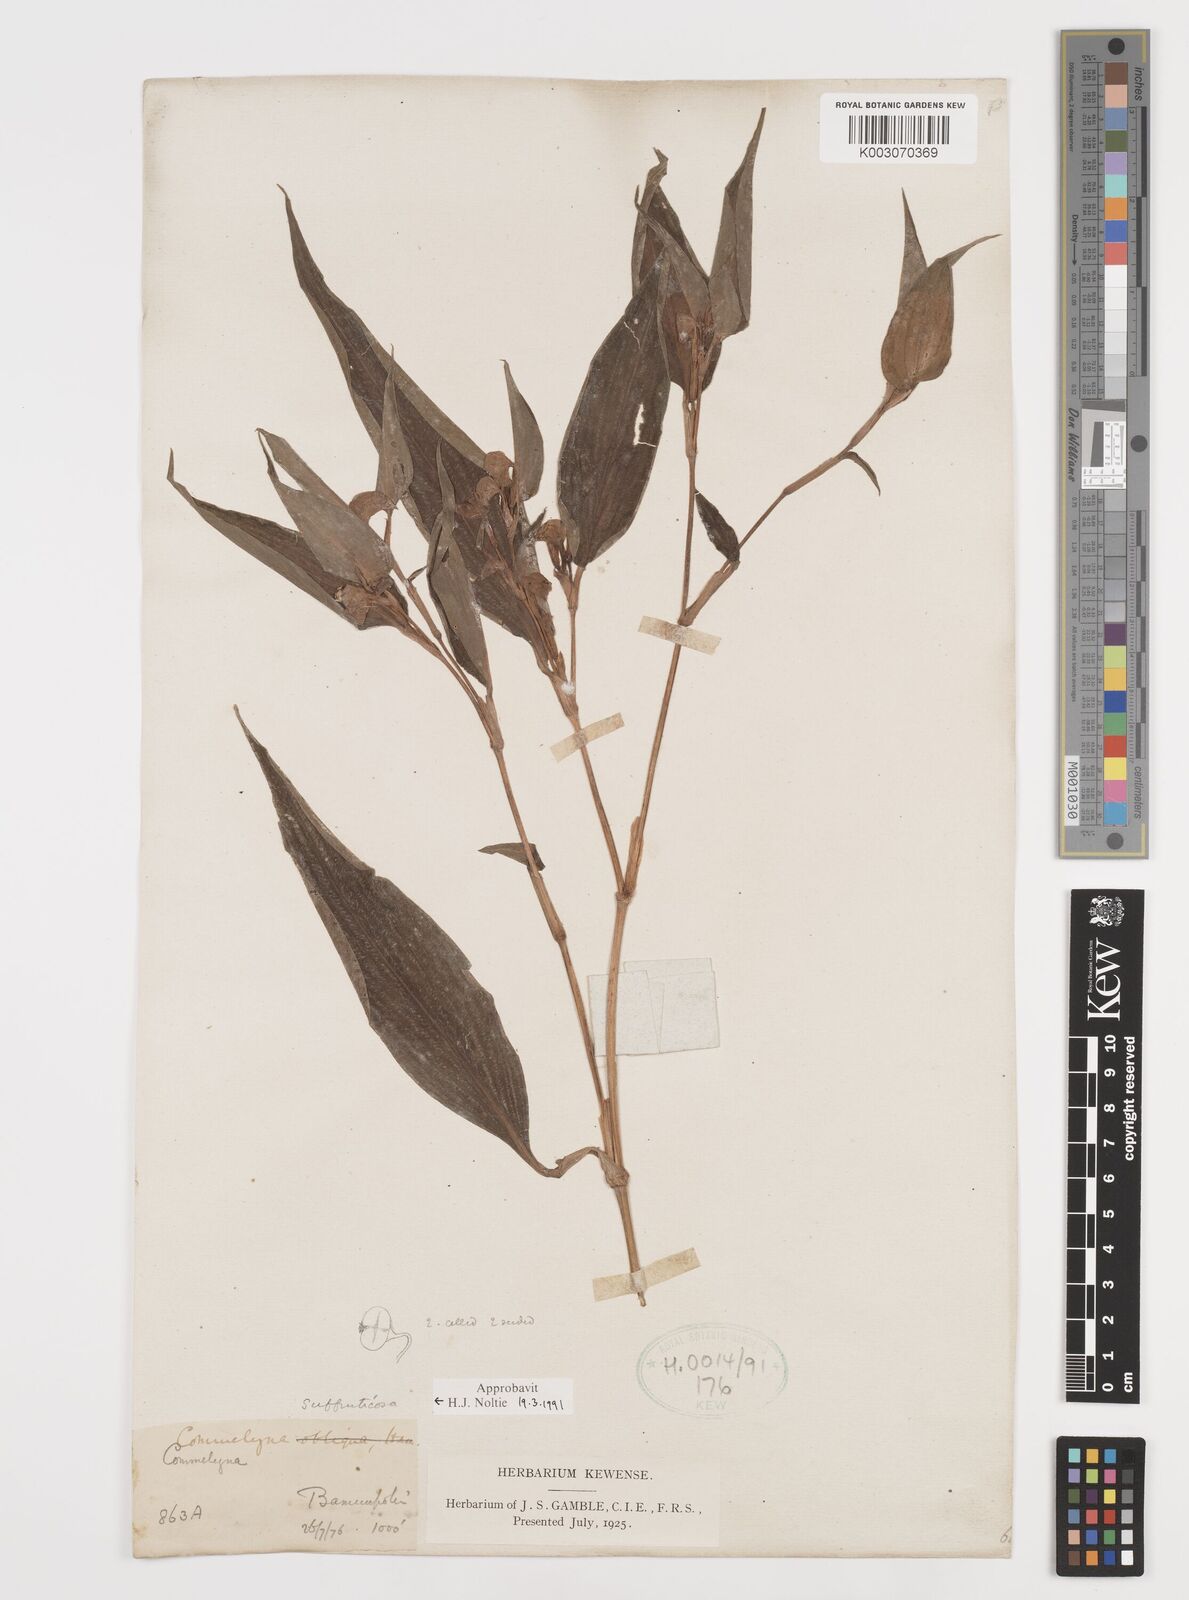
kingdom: Plantae
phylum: Tracheophyta
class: Liliopsida
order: Commelinales
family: Commelinaceae
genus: Commelina
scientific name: Commelina suffruticosa
